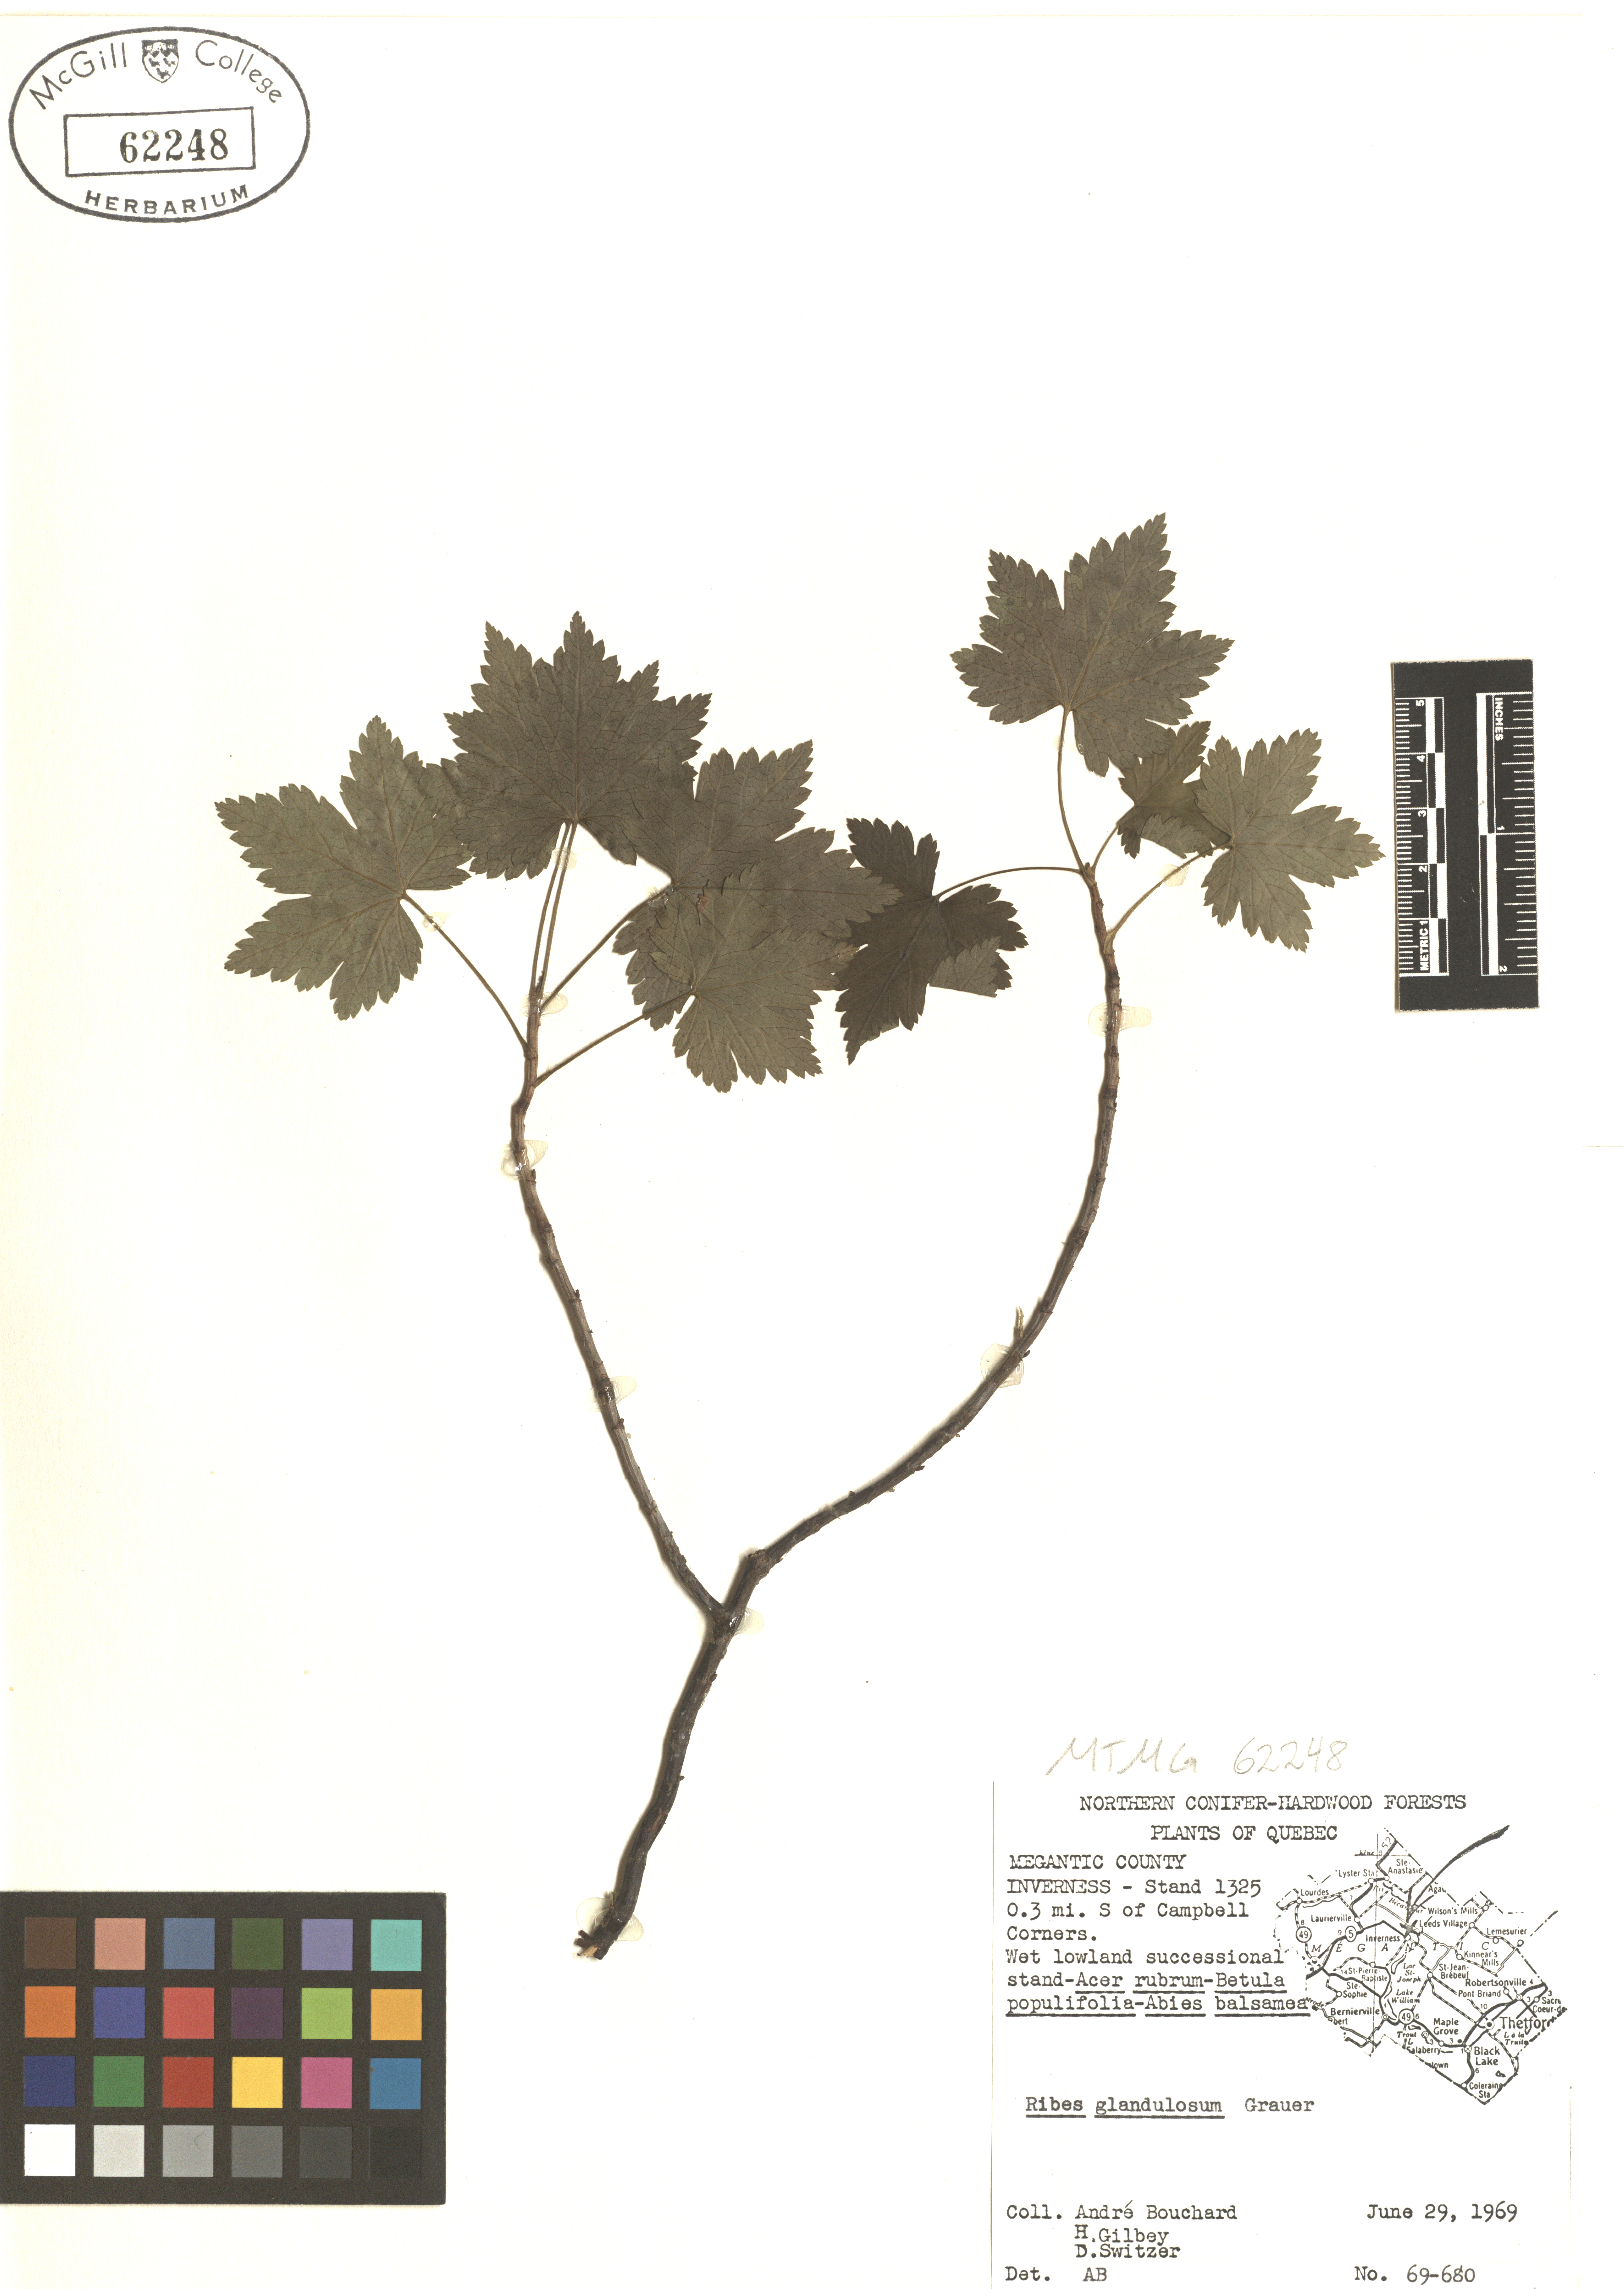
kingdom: Plantae
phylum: Tracheophyta
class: Magnoliopsida
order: Saxifragales
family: Grossulariaceae
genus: Ribes
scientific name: Ribes glandulosum
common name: Skunk currant
